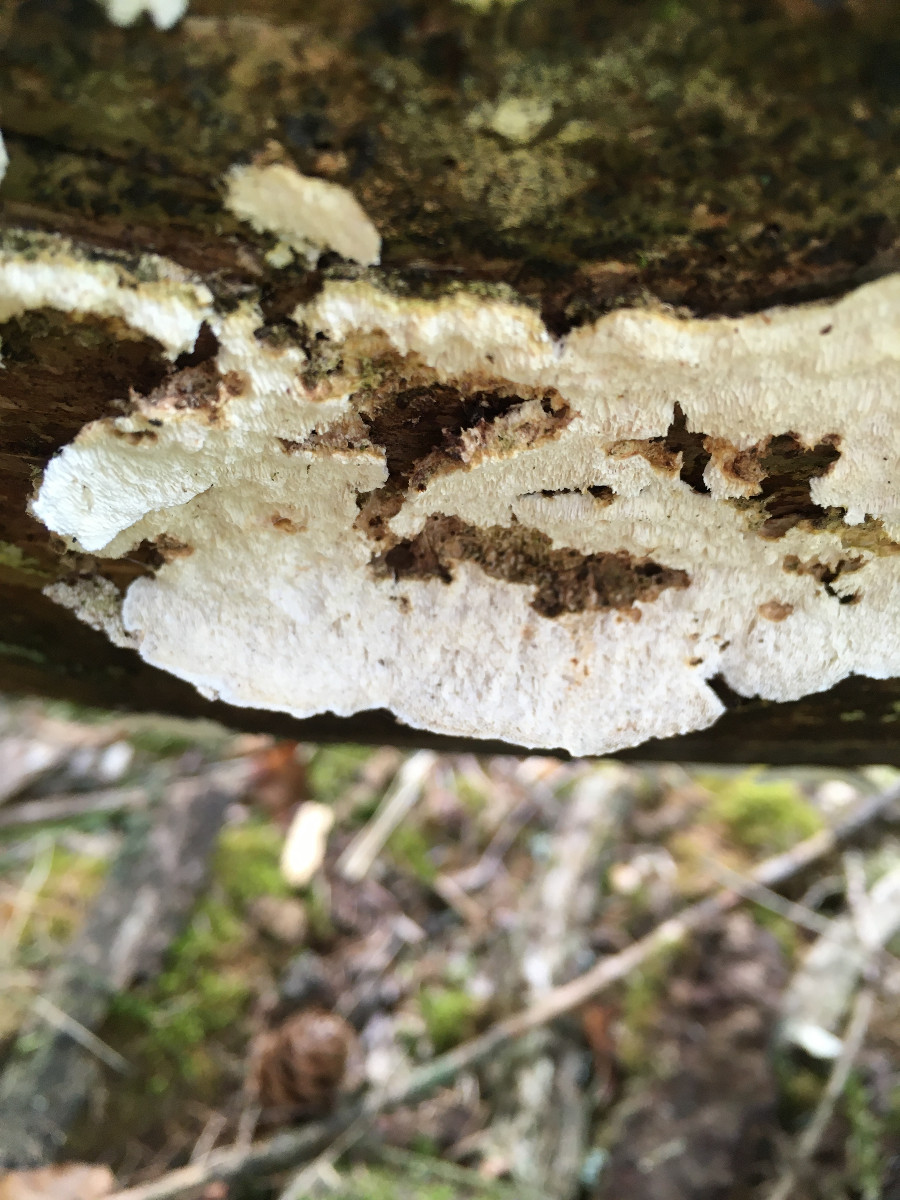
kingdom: Fungi
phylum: Basidiomycota
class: Agaricomycetes
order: Polyporales
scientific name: Polyporales
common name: poresvampordenen
